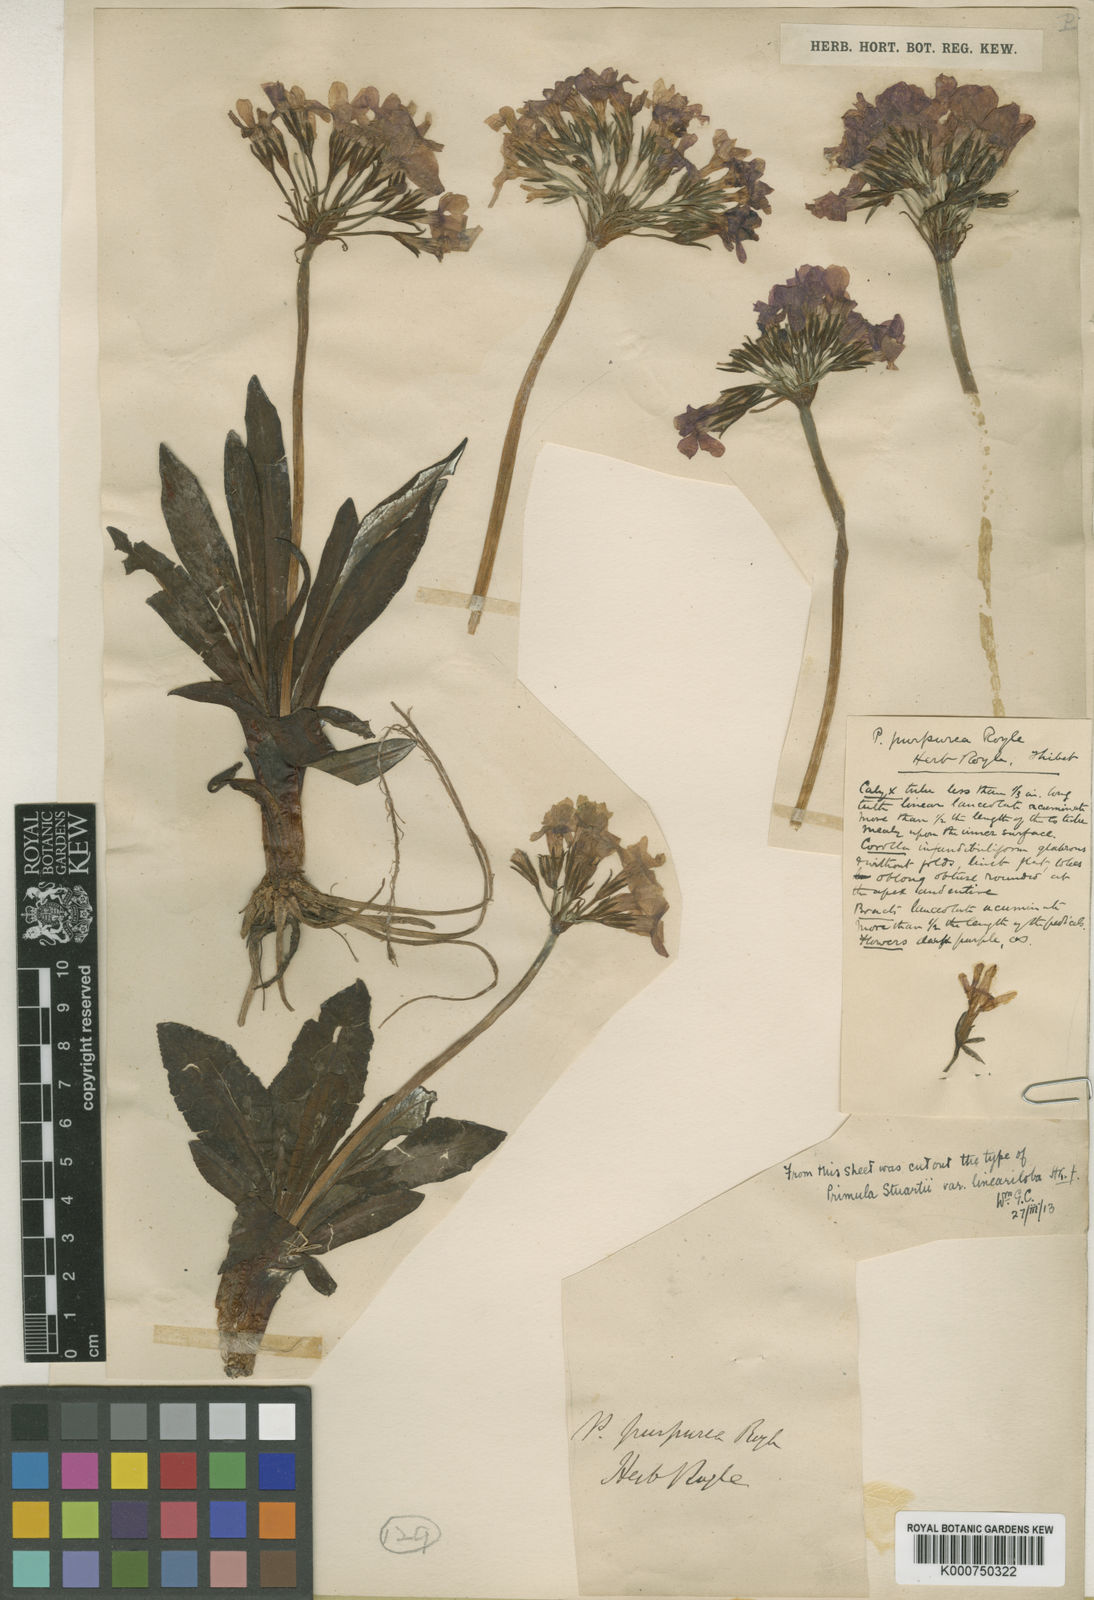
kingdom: Plantae
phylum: Tracheophyta
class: Magnoliopsida
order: Ericales
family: Primulaceae
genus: Primula
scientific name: Primula macrophylla
